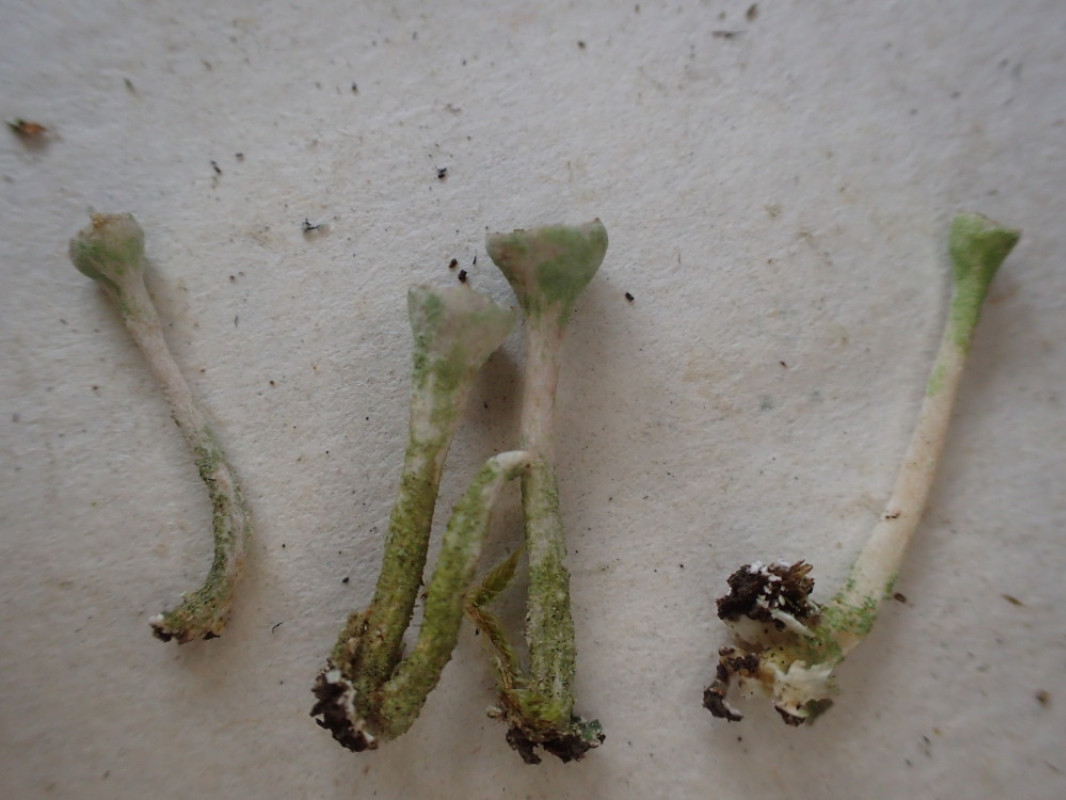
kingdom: Fungi
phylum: Ascomycota
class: Lecanoromycetes
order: Lecanorales
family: Cladoniaceae
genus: Cladonia
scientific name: Cladonia fimbriata
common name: bleggrøn bægerlav
